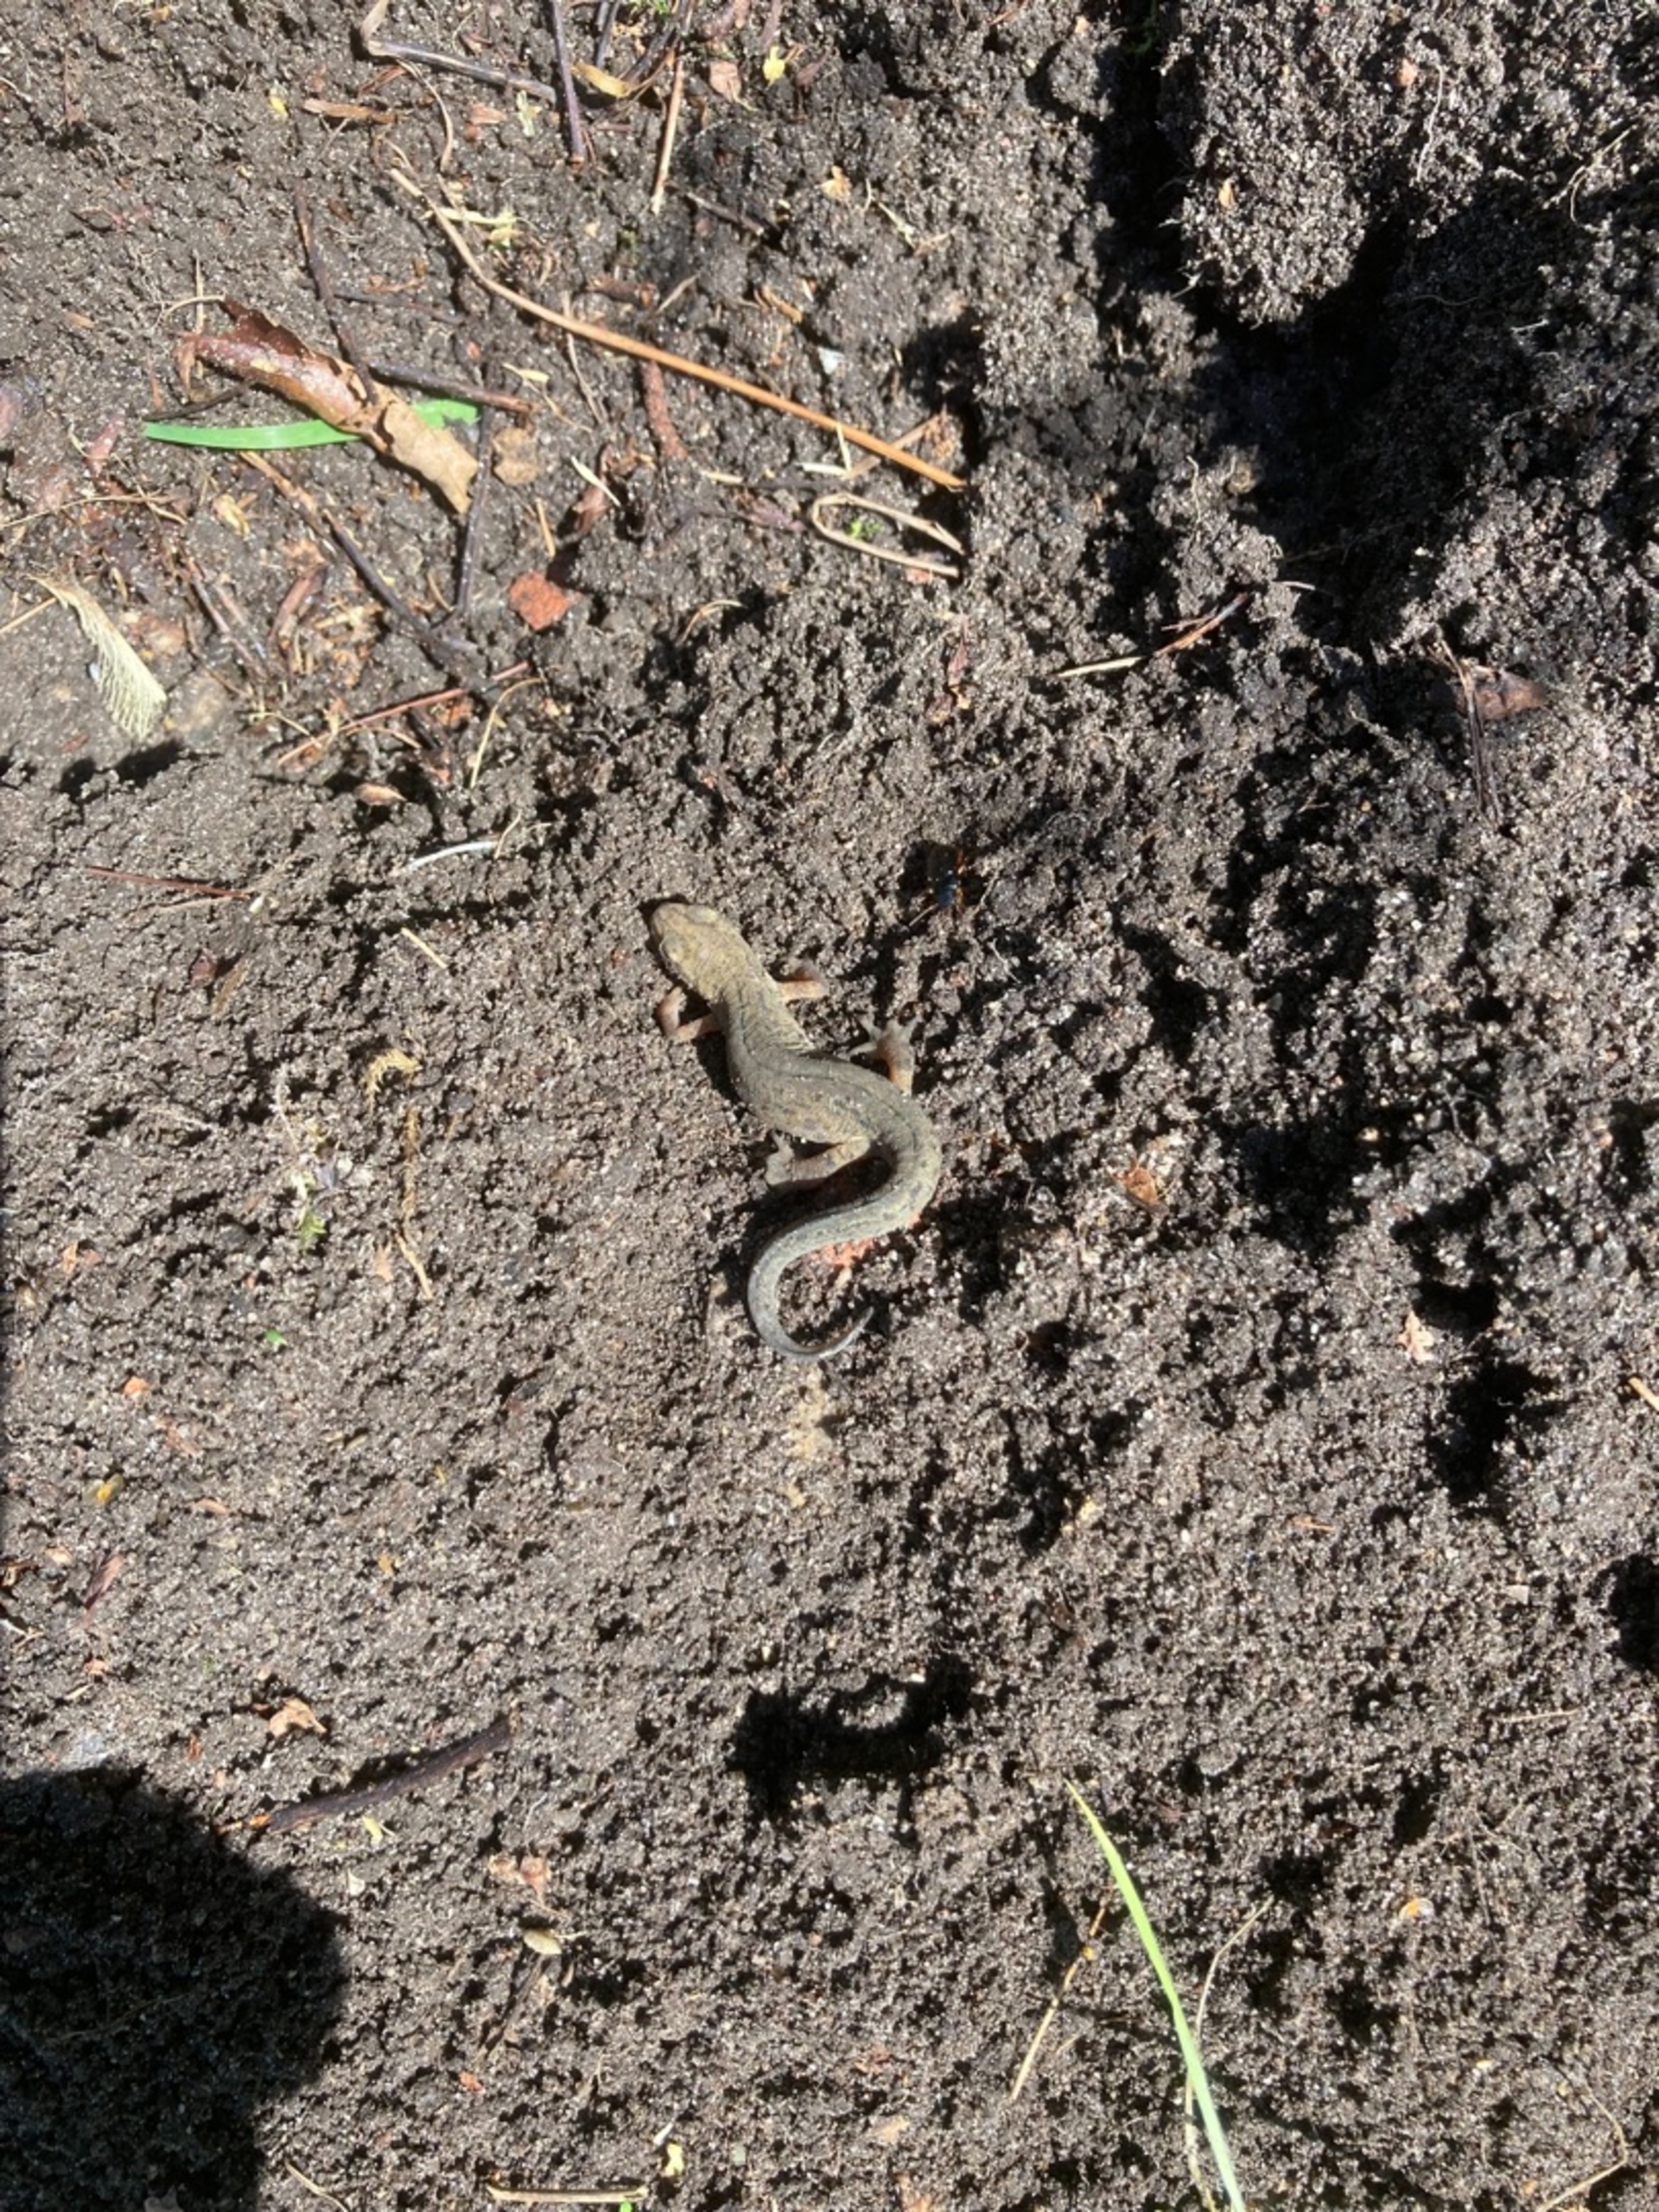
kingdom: Animalia
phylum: Chordata
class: Amphibia
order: Caudata
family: Salamandridae
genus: Lissotriton
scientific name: Lissotriton vulgaris
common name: Lille vandsalamander
